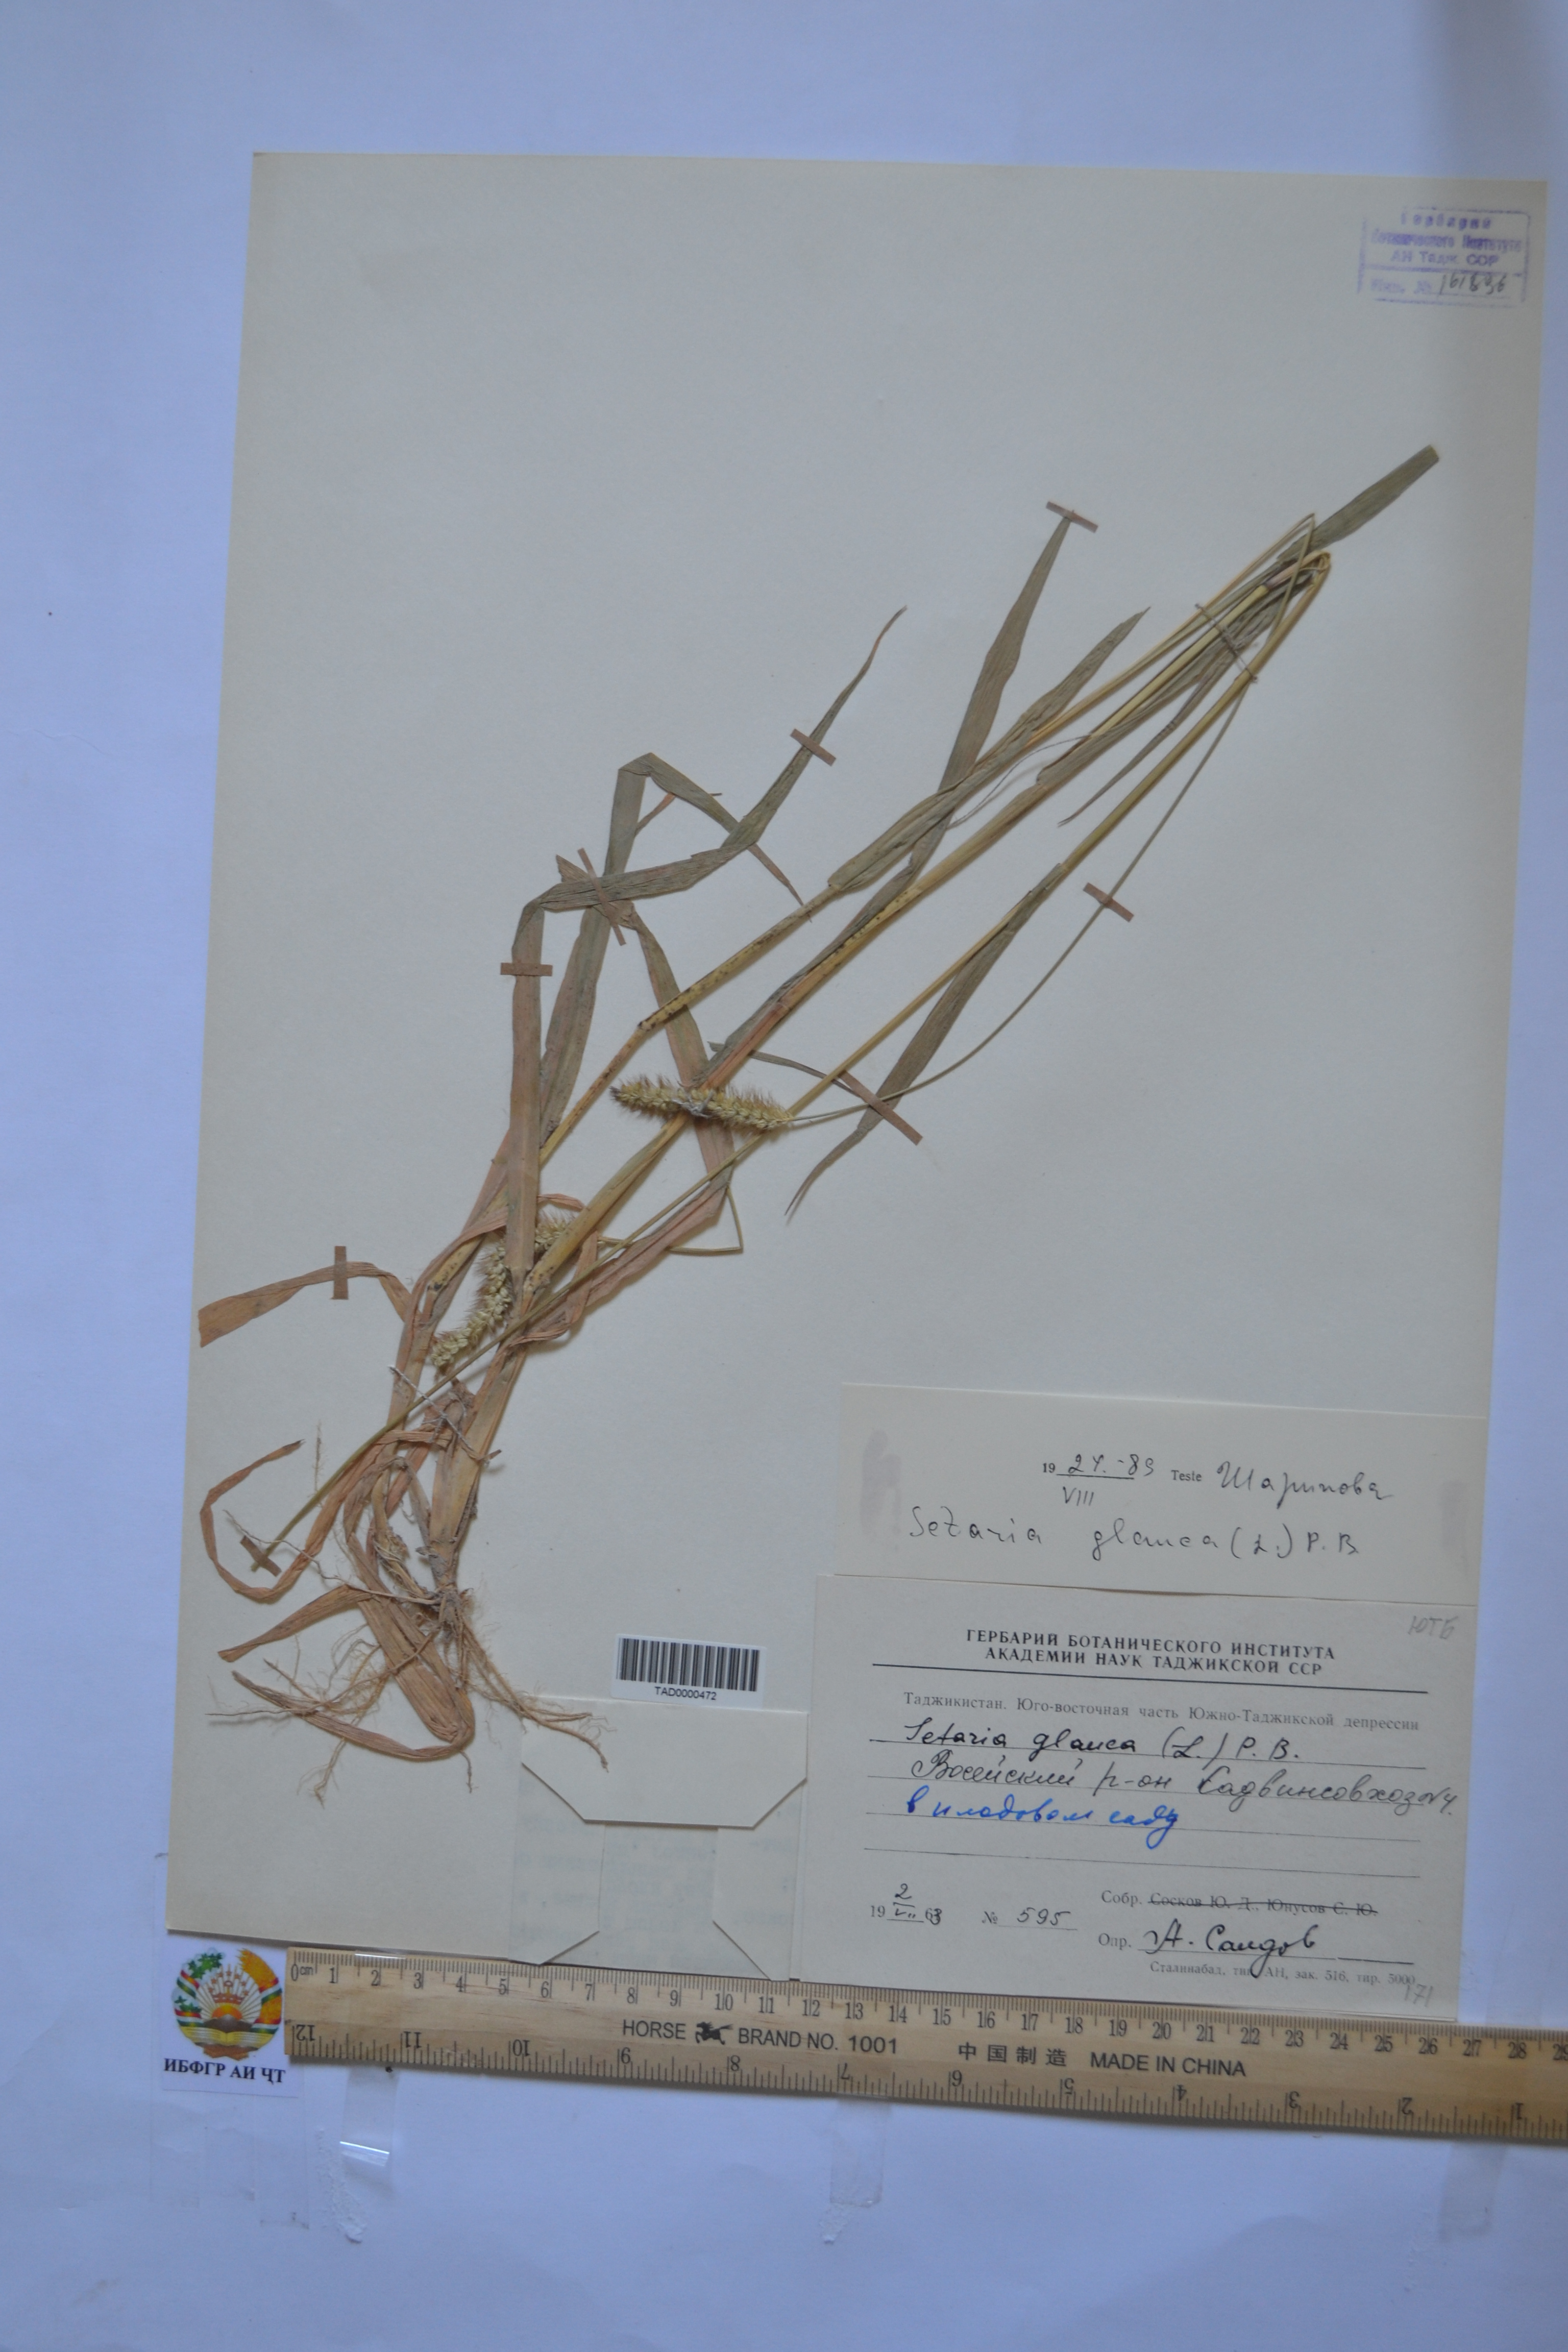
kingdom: Plantae
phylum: Tracheophyta
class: Liliopsida
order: Poales
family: Poaceae
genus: Cenchrus
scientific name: Cenchrus americanus
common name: Pearl millet
